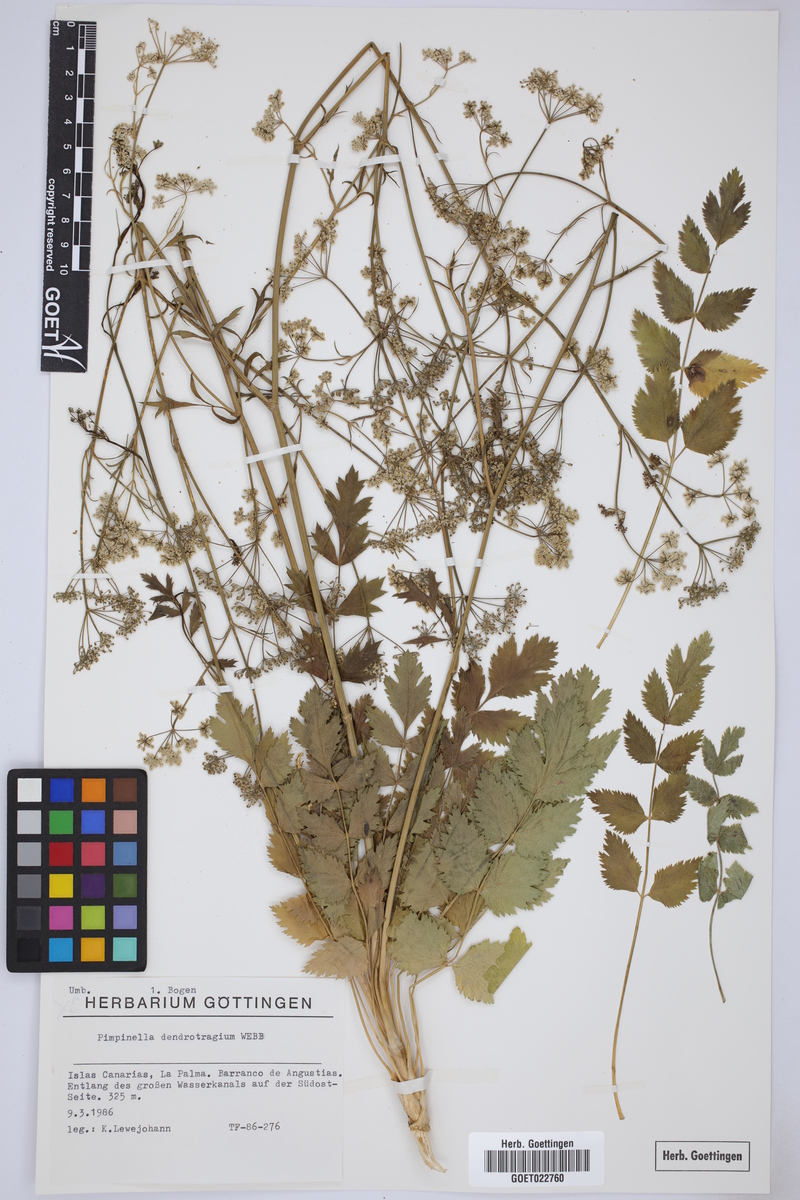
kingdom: Plantae
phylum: Tracheophyta
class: Magnoliopsida
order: Apiales
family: Apiaceae
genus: Pimpinella
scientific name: Pimpinella dendroselinum
